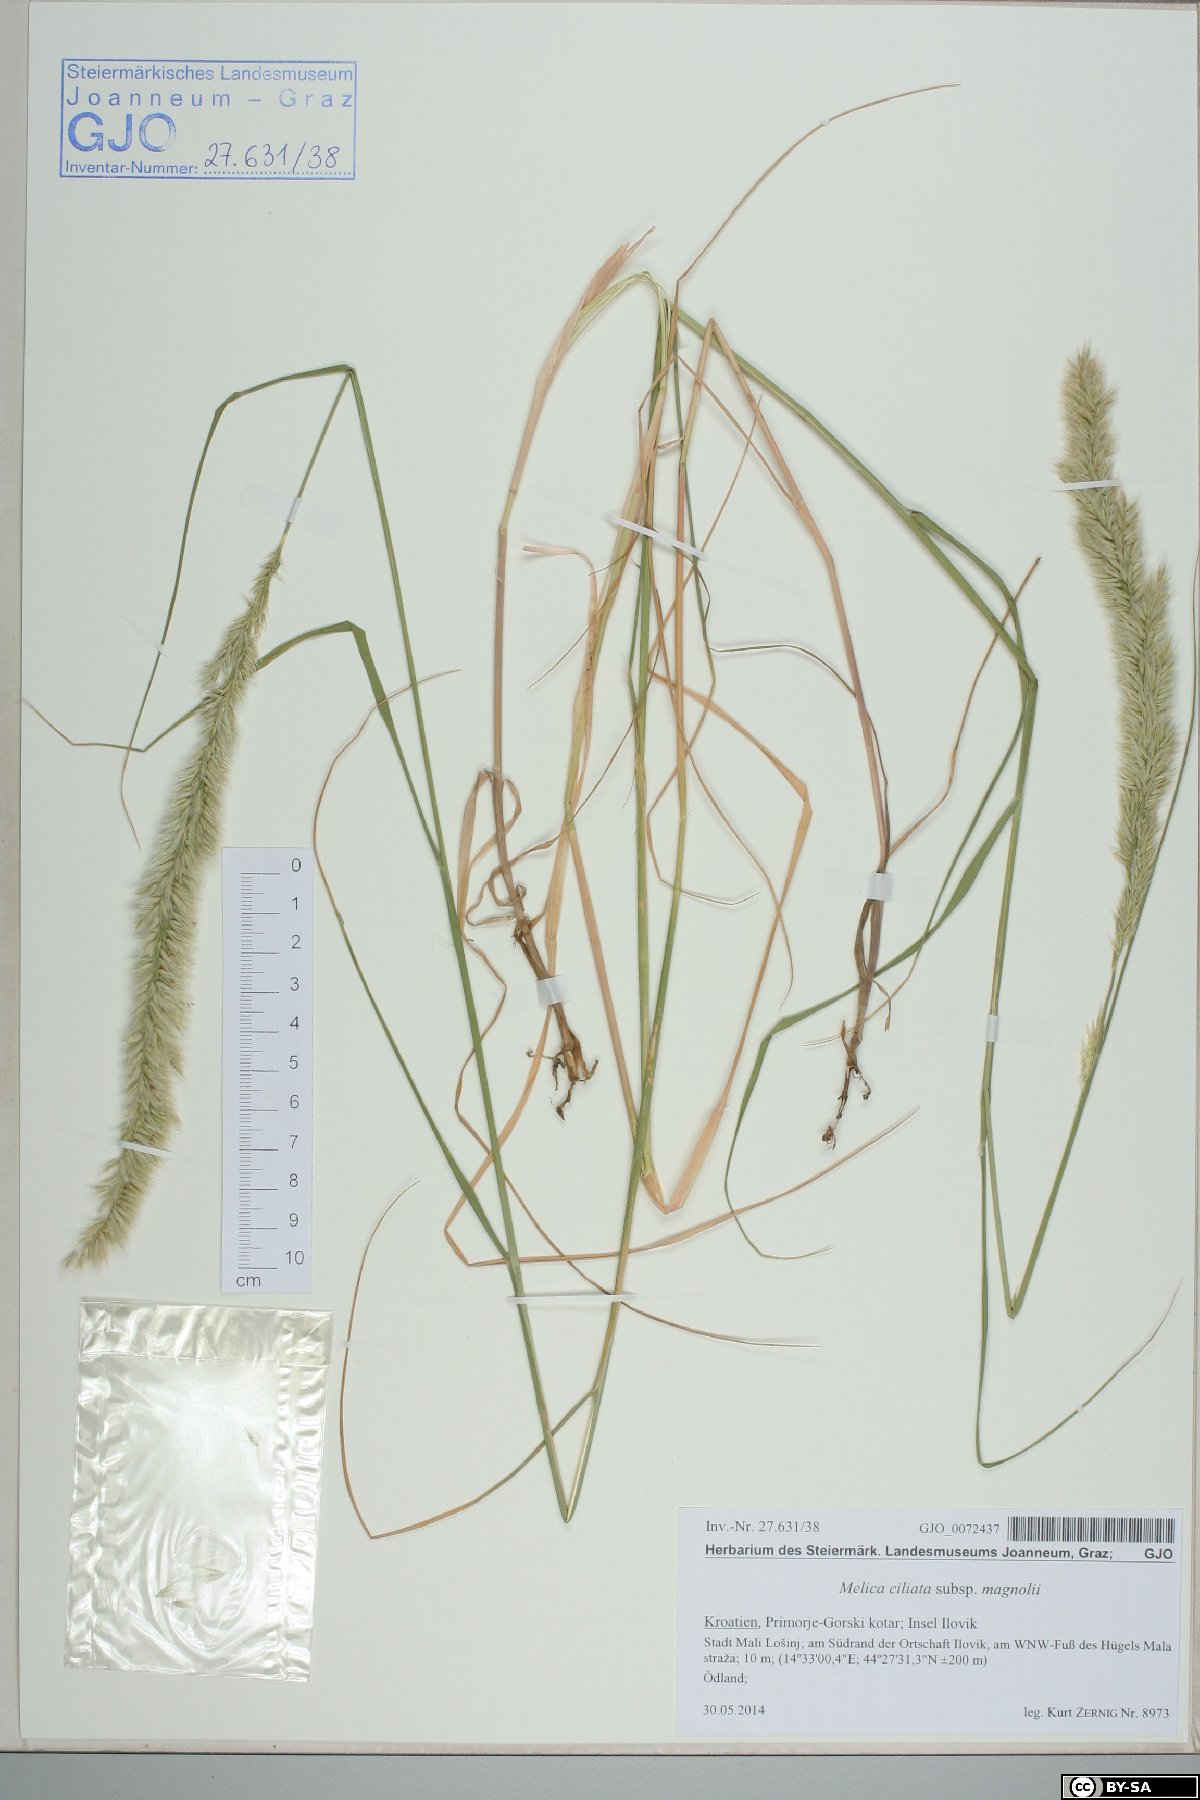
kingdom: Plantae
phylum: Tracheophyta
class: Liliopsida
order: Poales
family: Poaceae
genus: Melica
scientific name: Melica ciliata
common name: Hairy melicgrass
